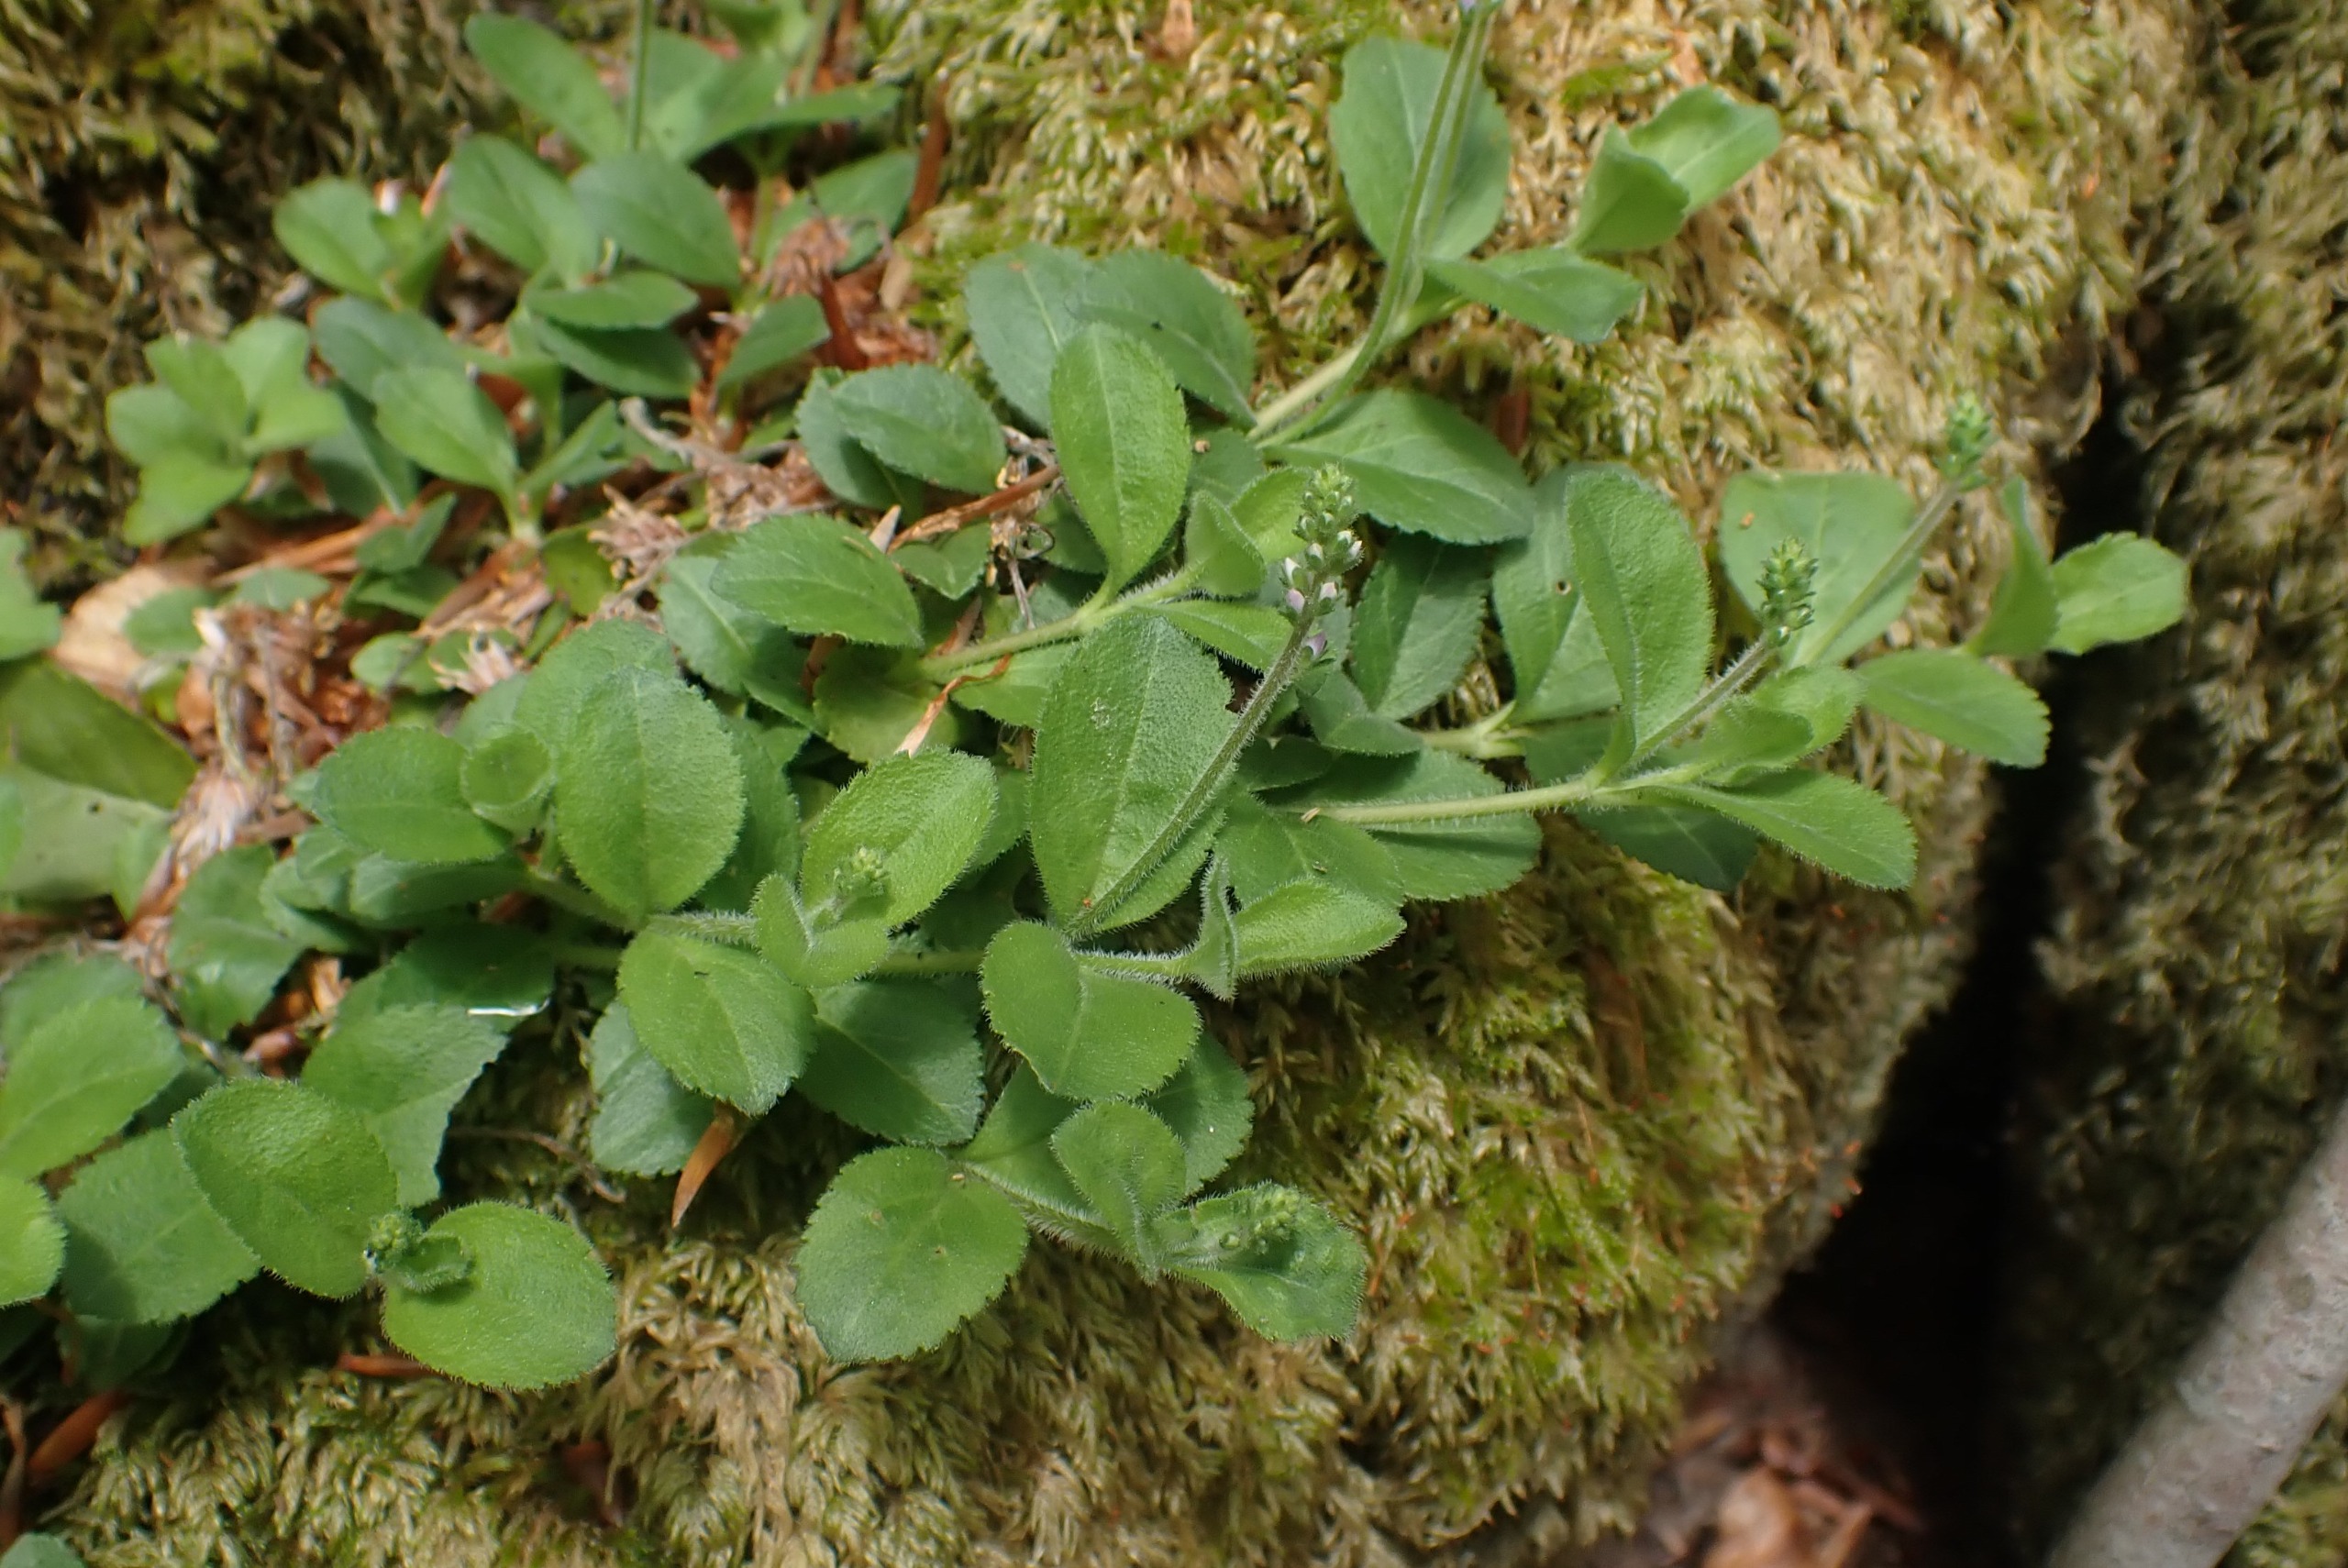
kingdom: Plantae
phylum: Tracheophyta
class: Magnoliopsida
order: Lamiales
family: Plantaginaceae
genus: Veronica
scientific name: Veronica officinalis
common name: Læge-ærenpris
